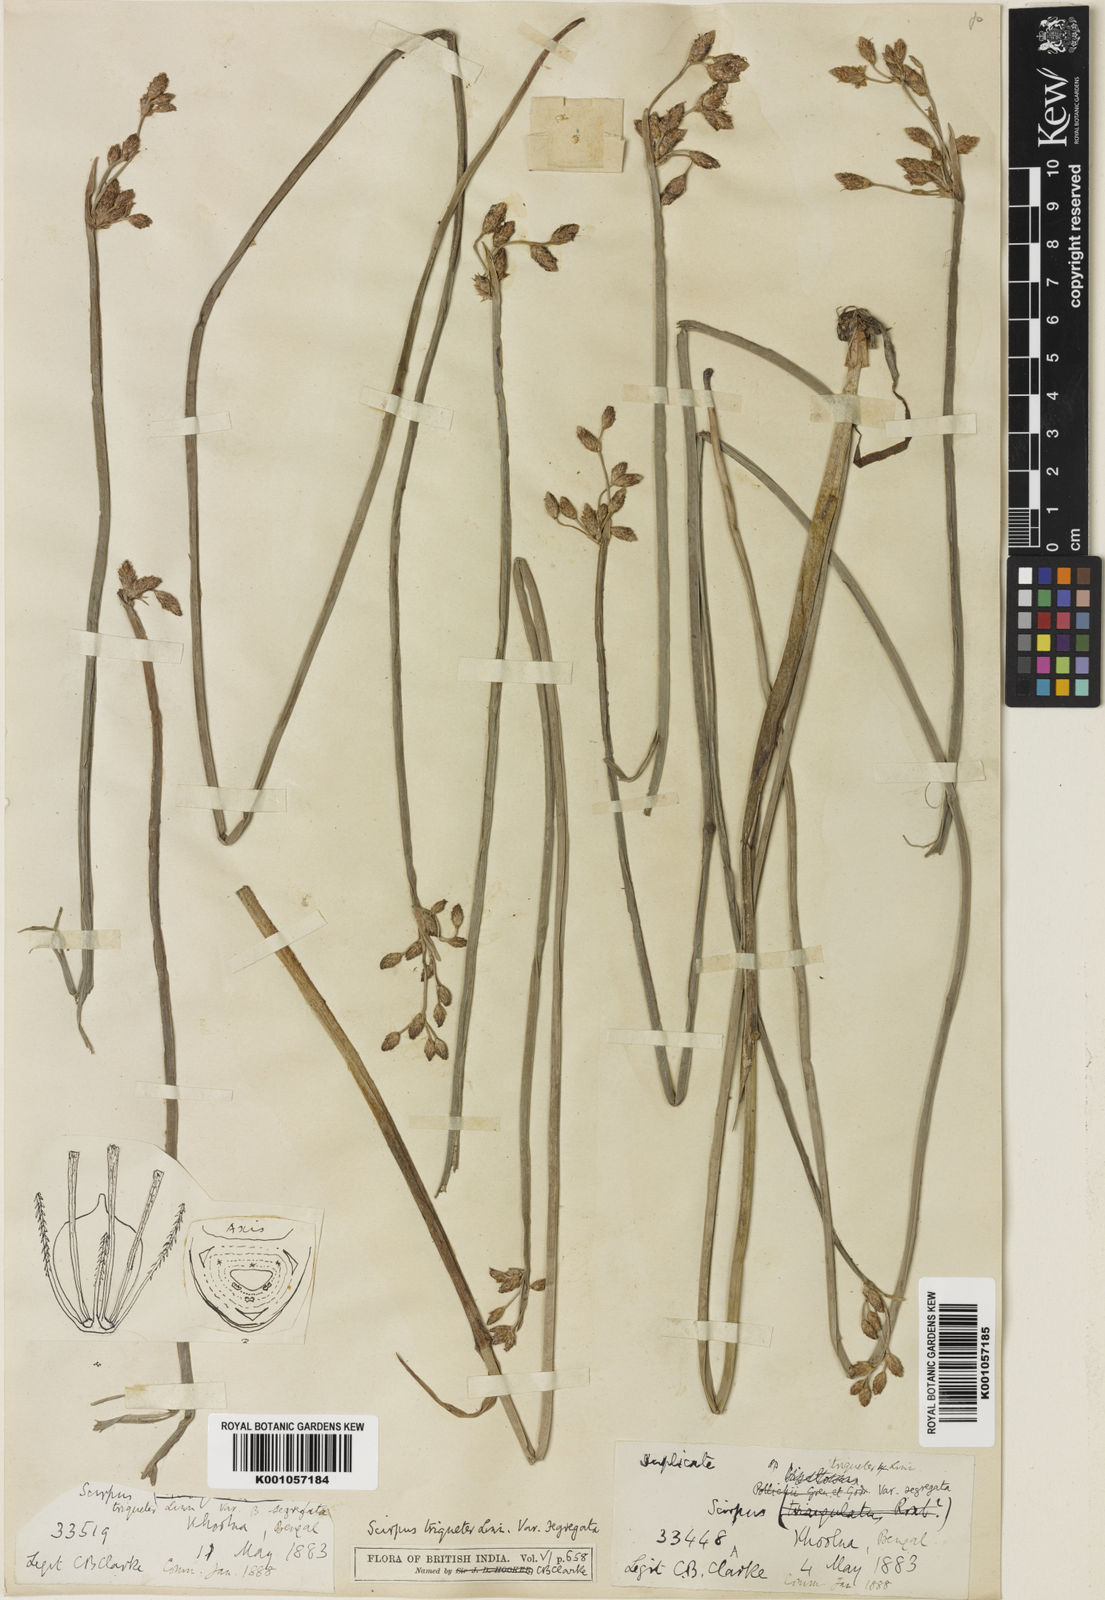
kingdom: Plantae
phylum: Tracheophyta
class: Liliopsida
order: Poales
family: Cyperaceae
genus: Schoenoplectus
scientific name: Schoenoplectus triqueter
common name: Triangular club-rush
